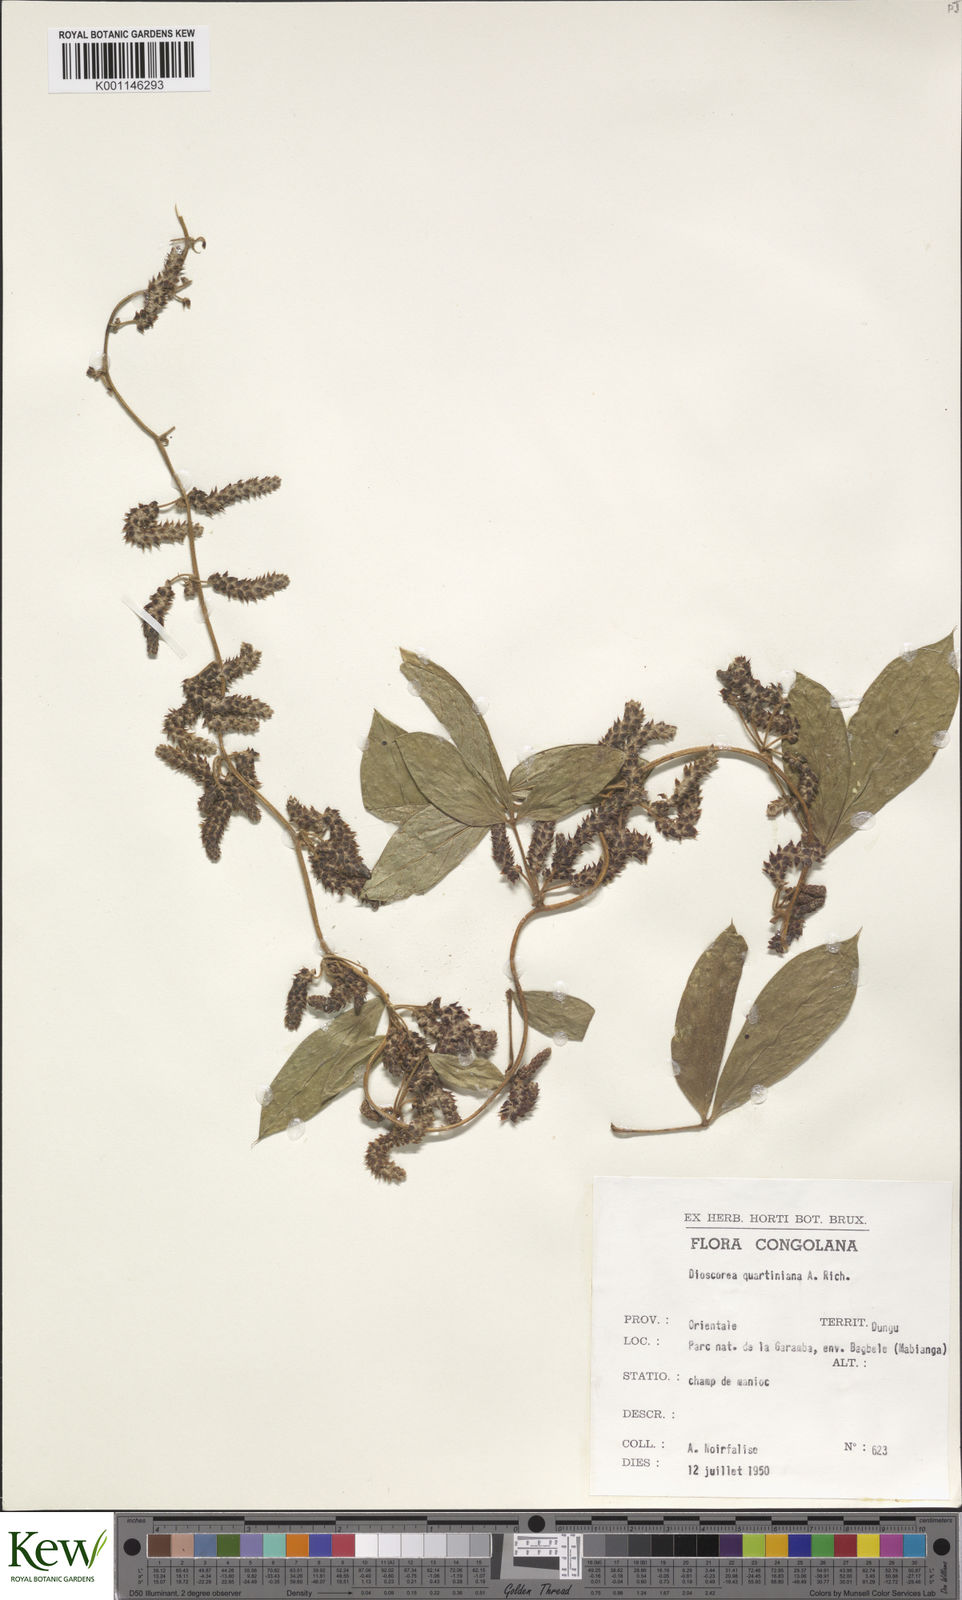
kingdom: Plantae
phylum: Tracheophyta
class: Liliopsida
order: Dioscoreales
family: Dioscoreaceae
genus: Dioscorea
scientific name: Dioscorea quartiniana
